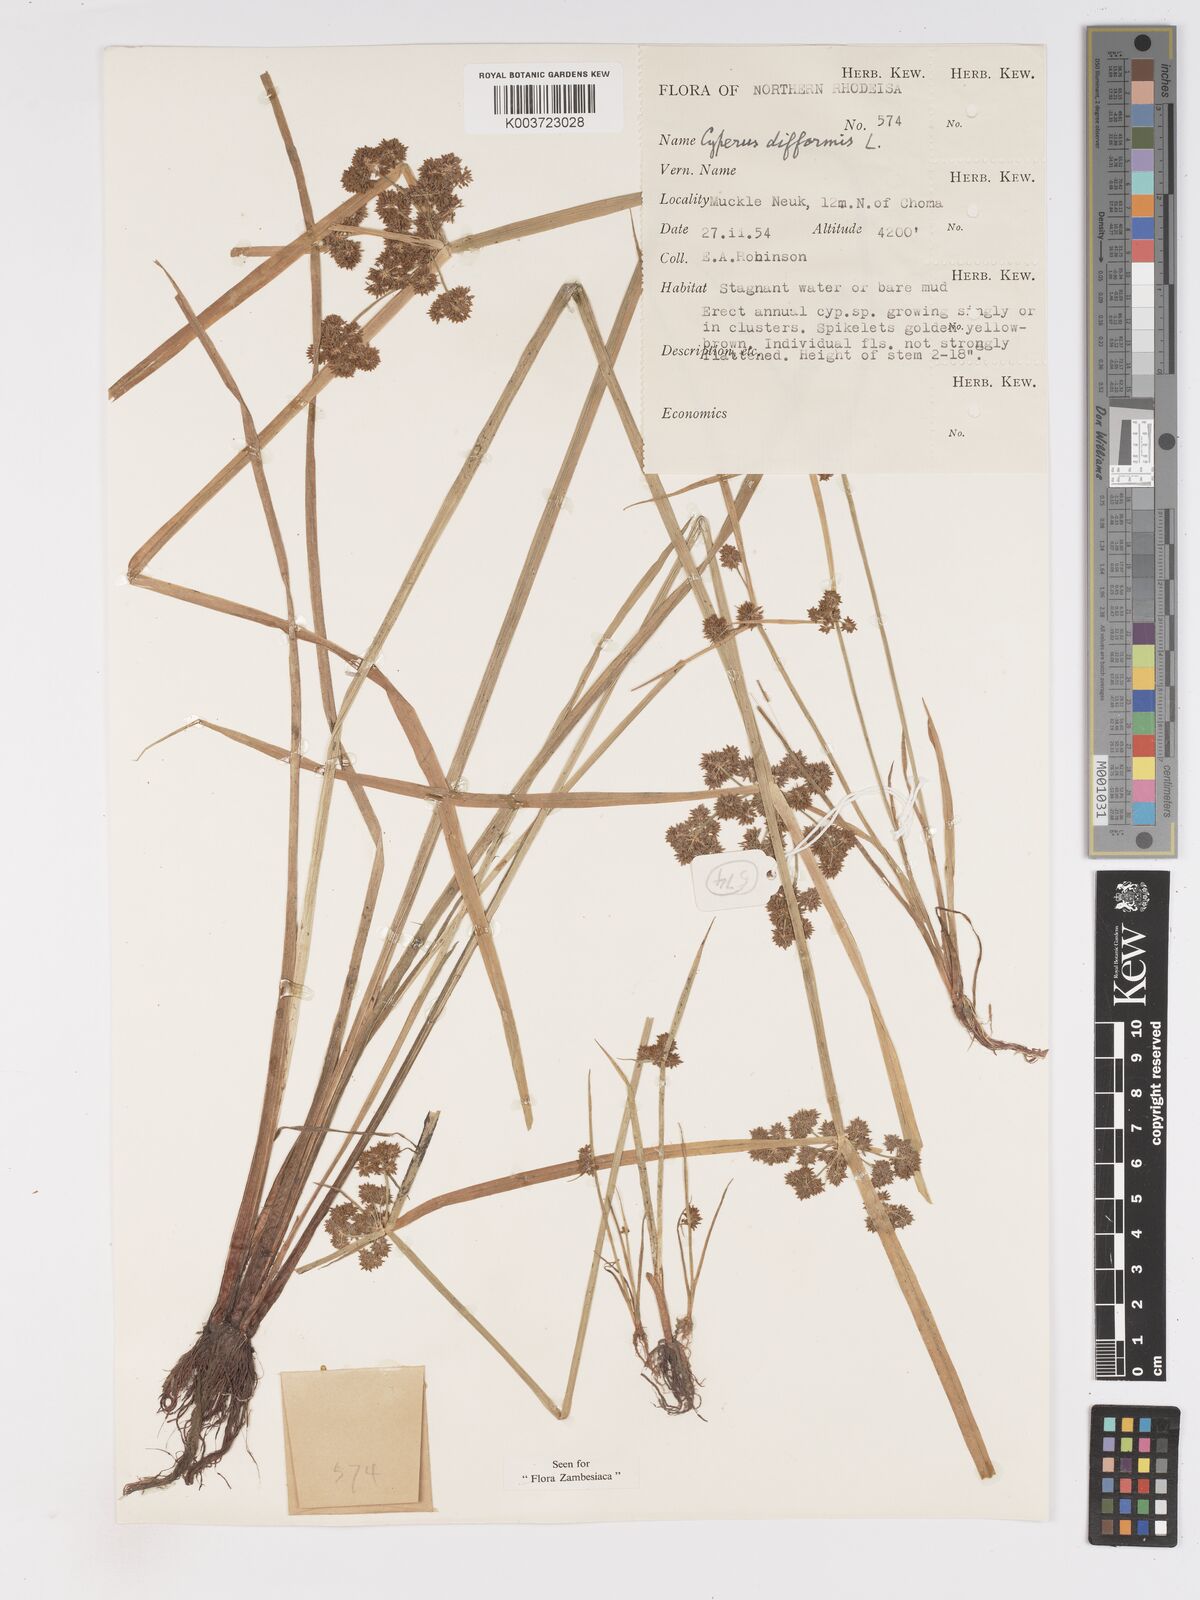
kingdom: Plantae
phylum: Tracheophyta
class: Liliopsida
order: Poales
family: Cyperaceae
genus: Cyperus
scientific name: Cyperus difformis
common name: Variable flatsedge
